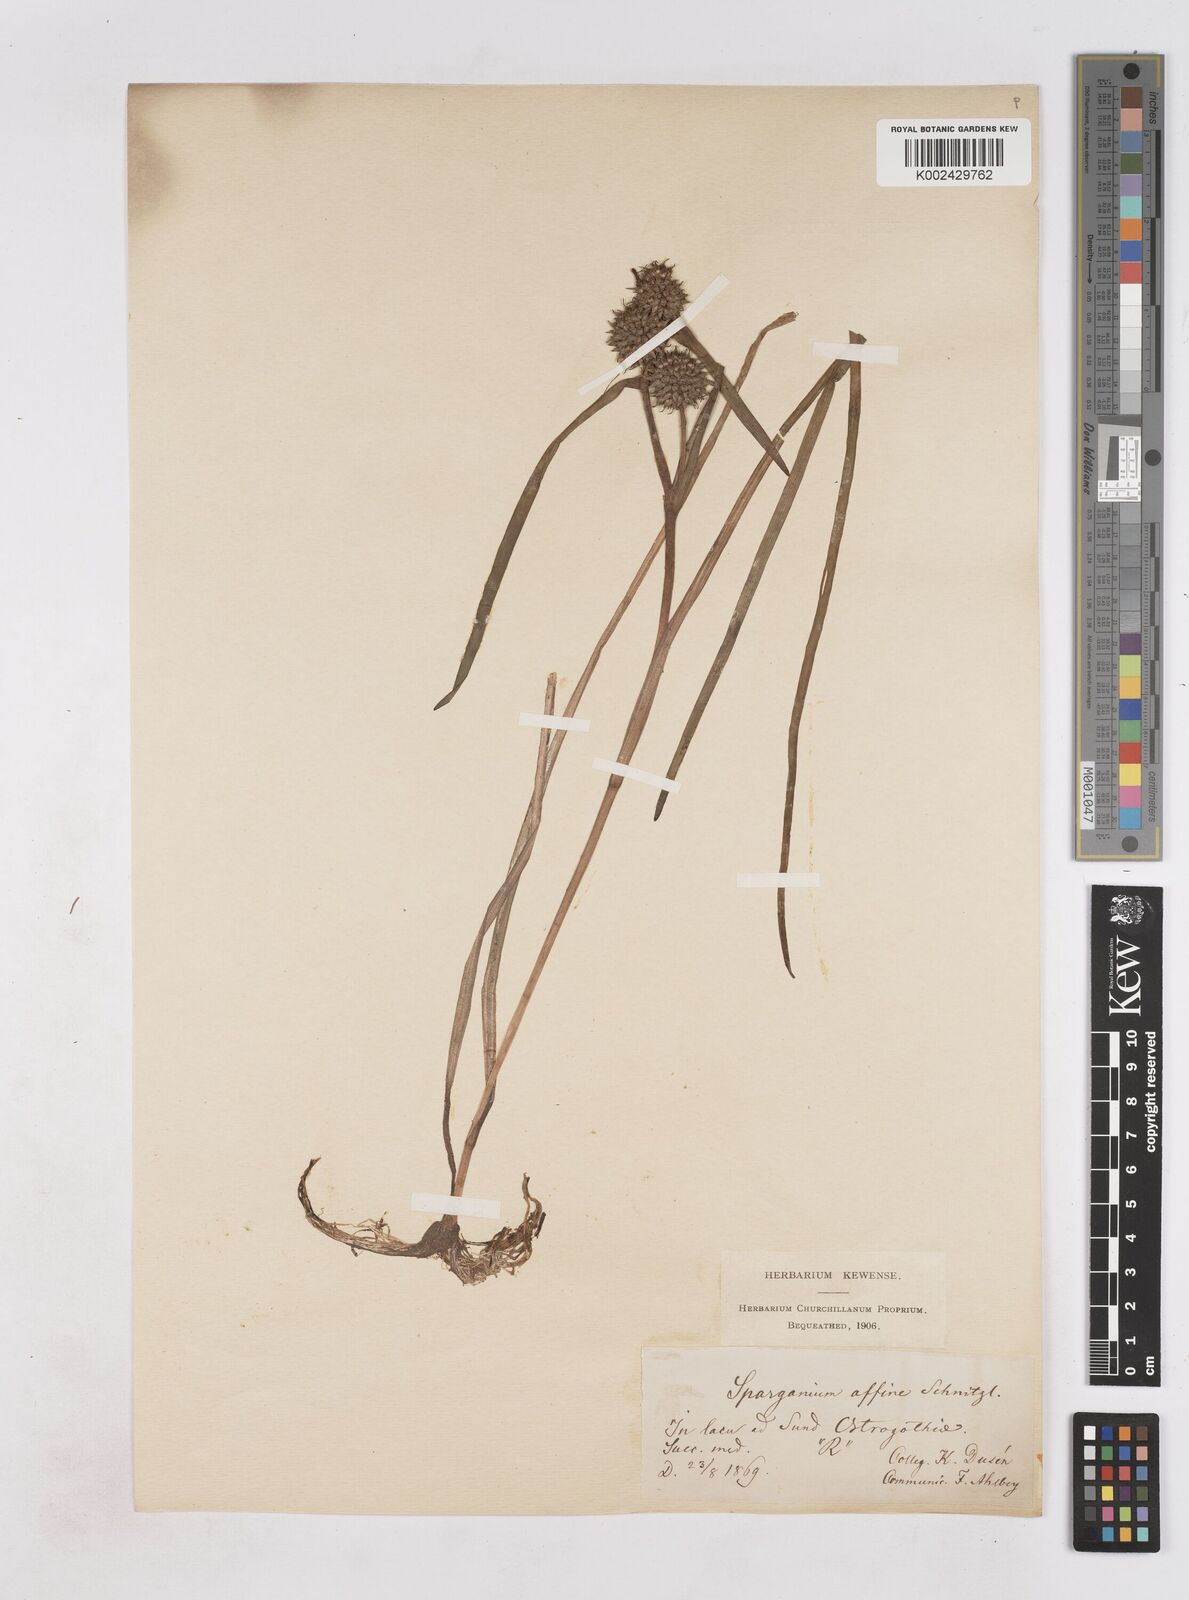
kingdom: Plantae
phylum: Tracheophyta
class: Liliopsida
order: Poales
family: Typhaceae
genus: Sparganium
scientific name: Sparganium angustifolium
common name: Floating bur-reed
